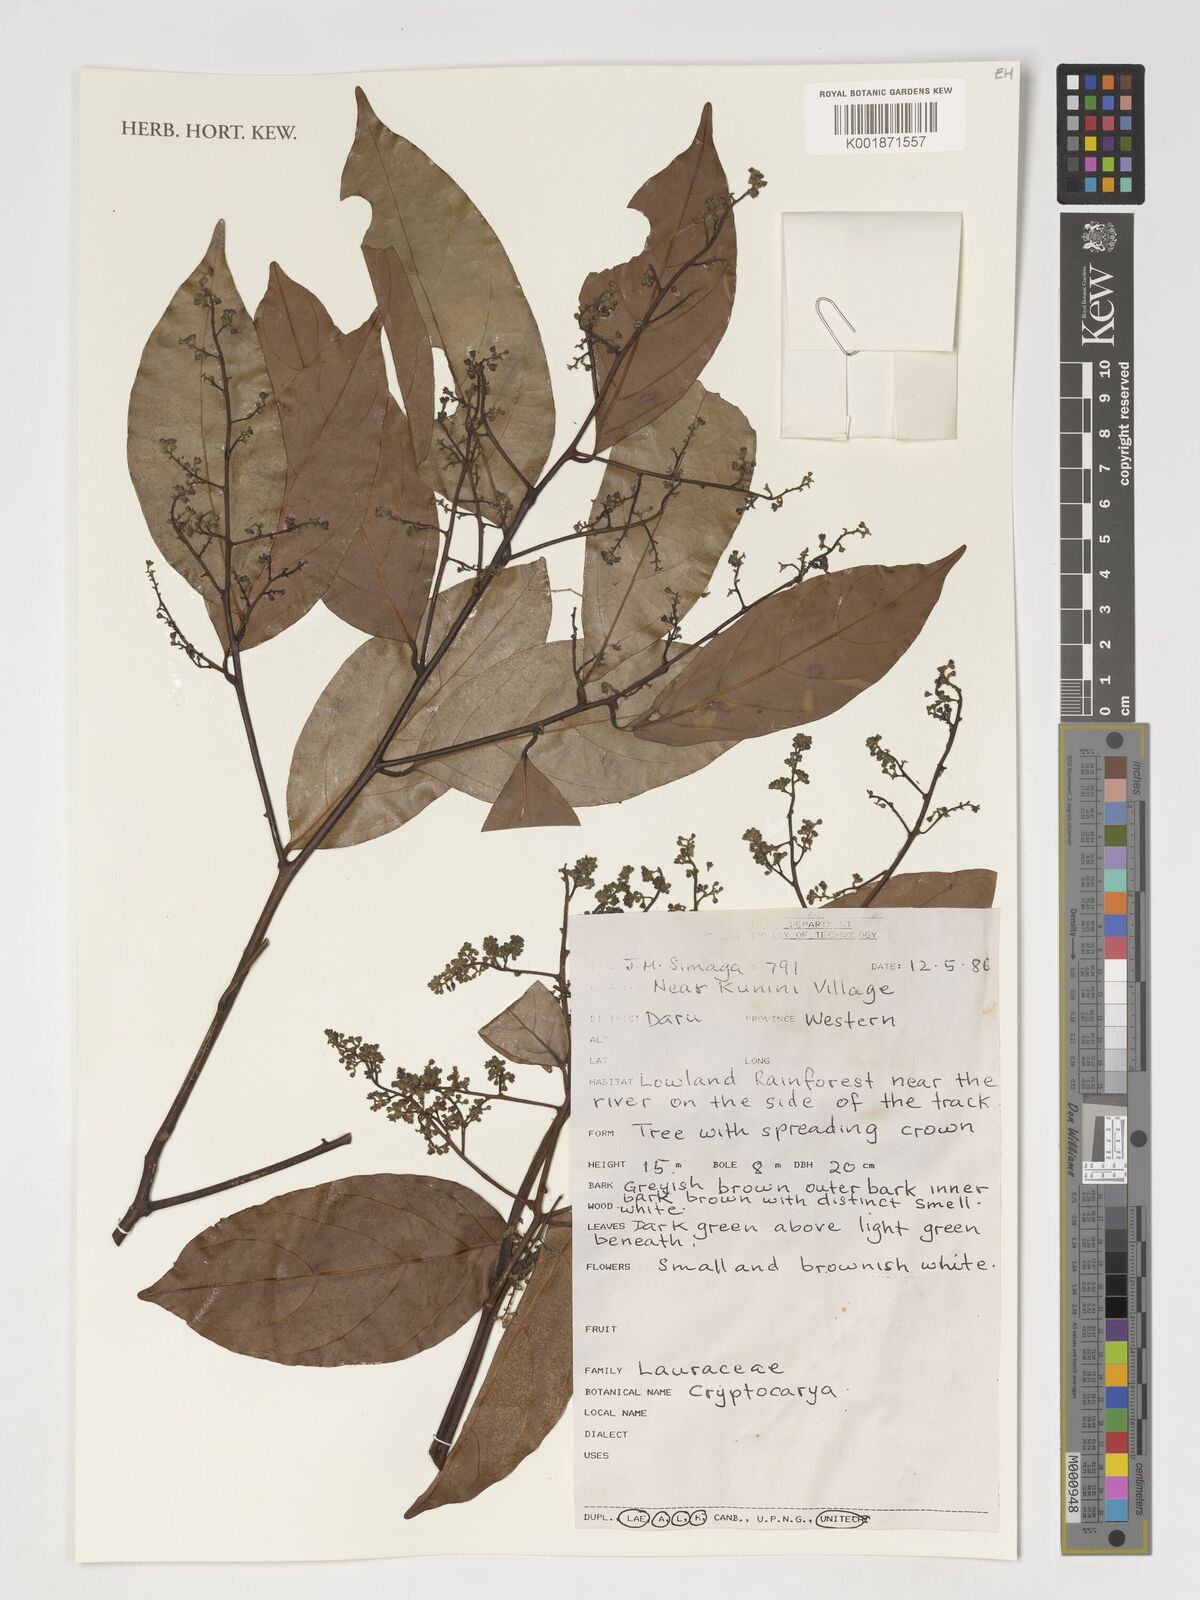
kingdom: Plantae
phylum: Tracheophyta
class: Magnoliopsida
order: Laurales
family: Lauraceae
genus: Cryptocarya
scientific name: Cryptocarya
